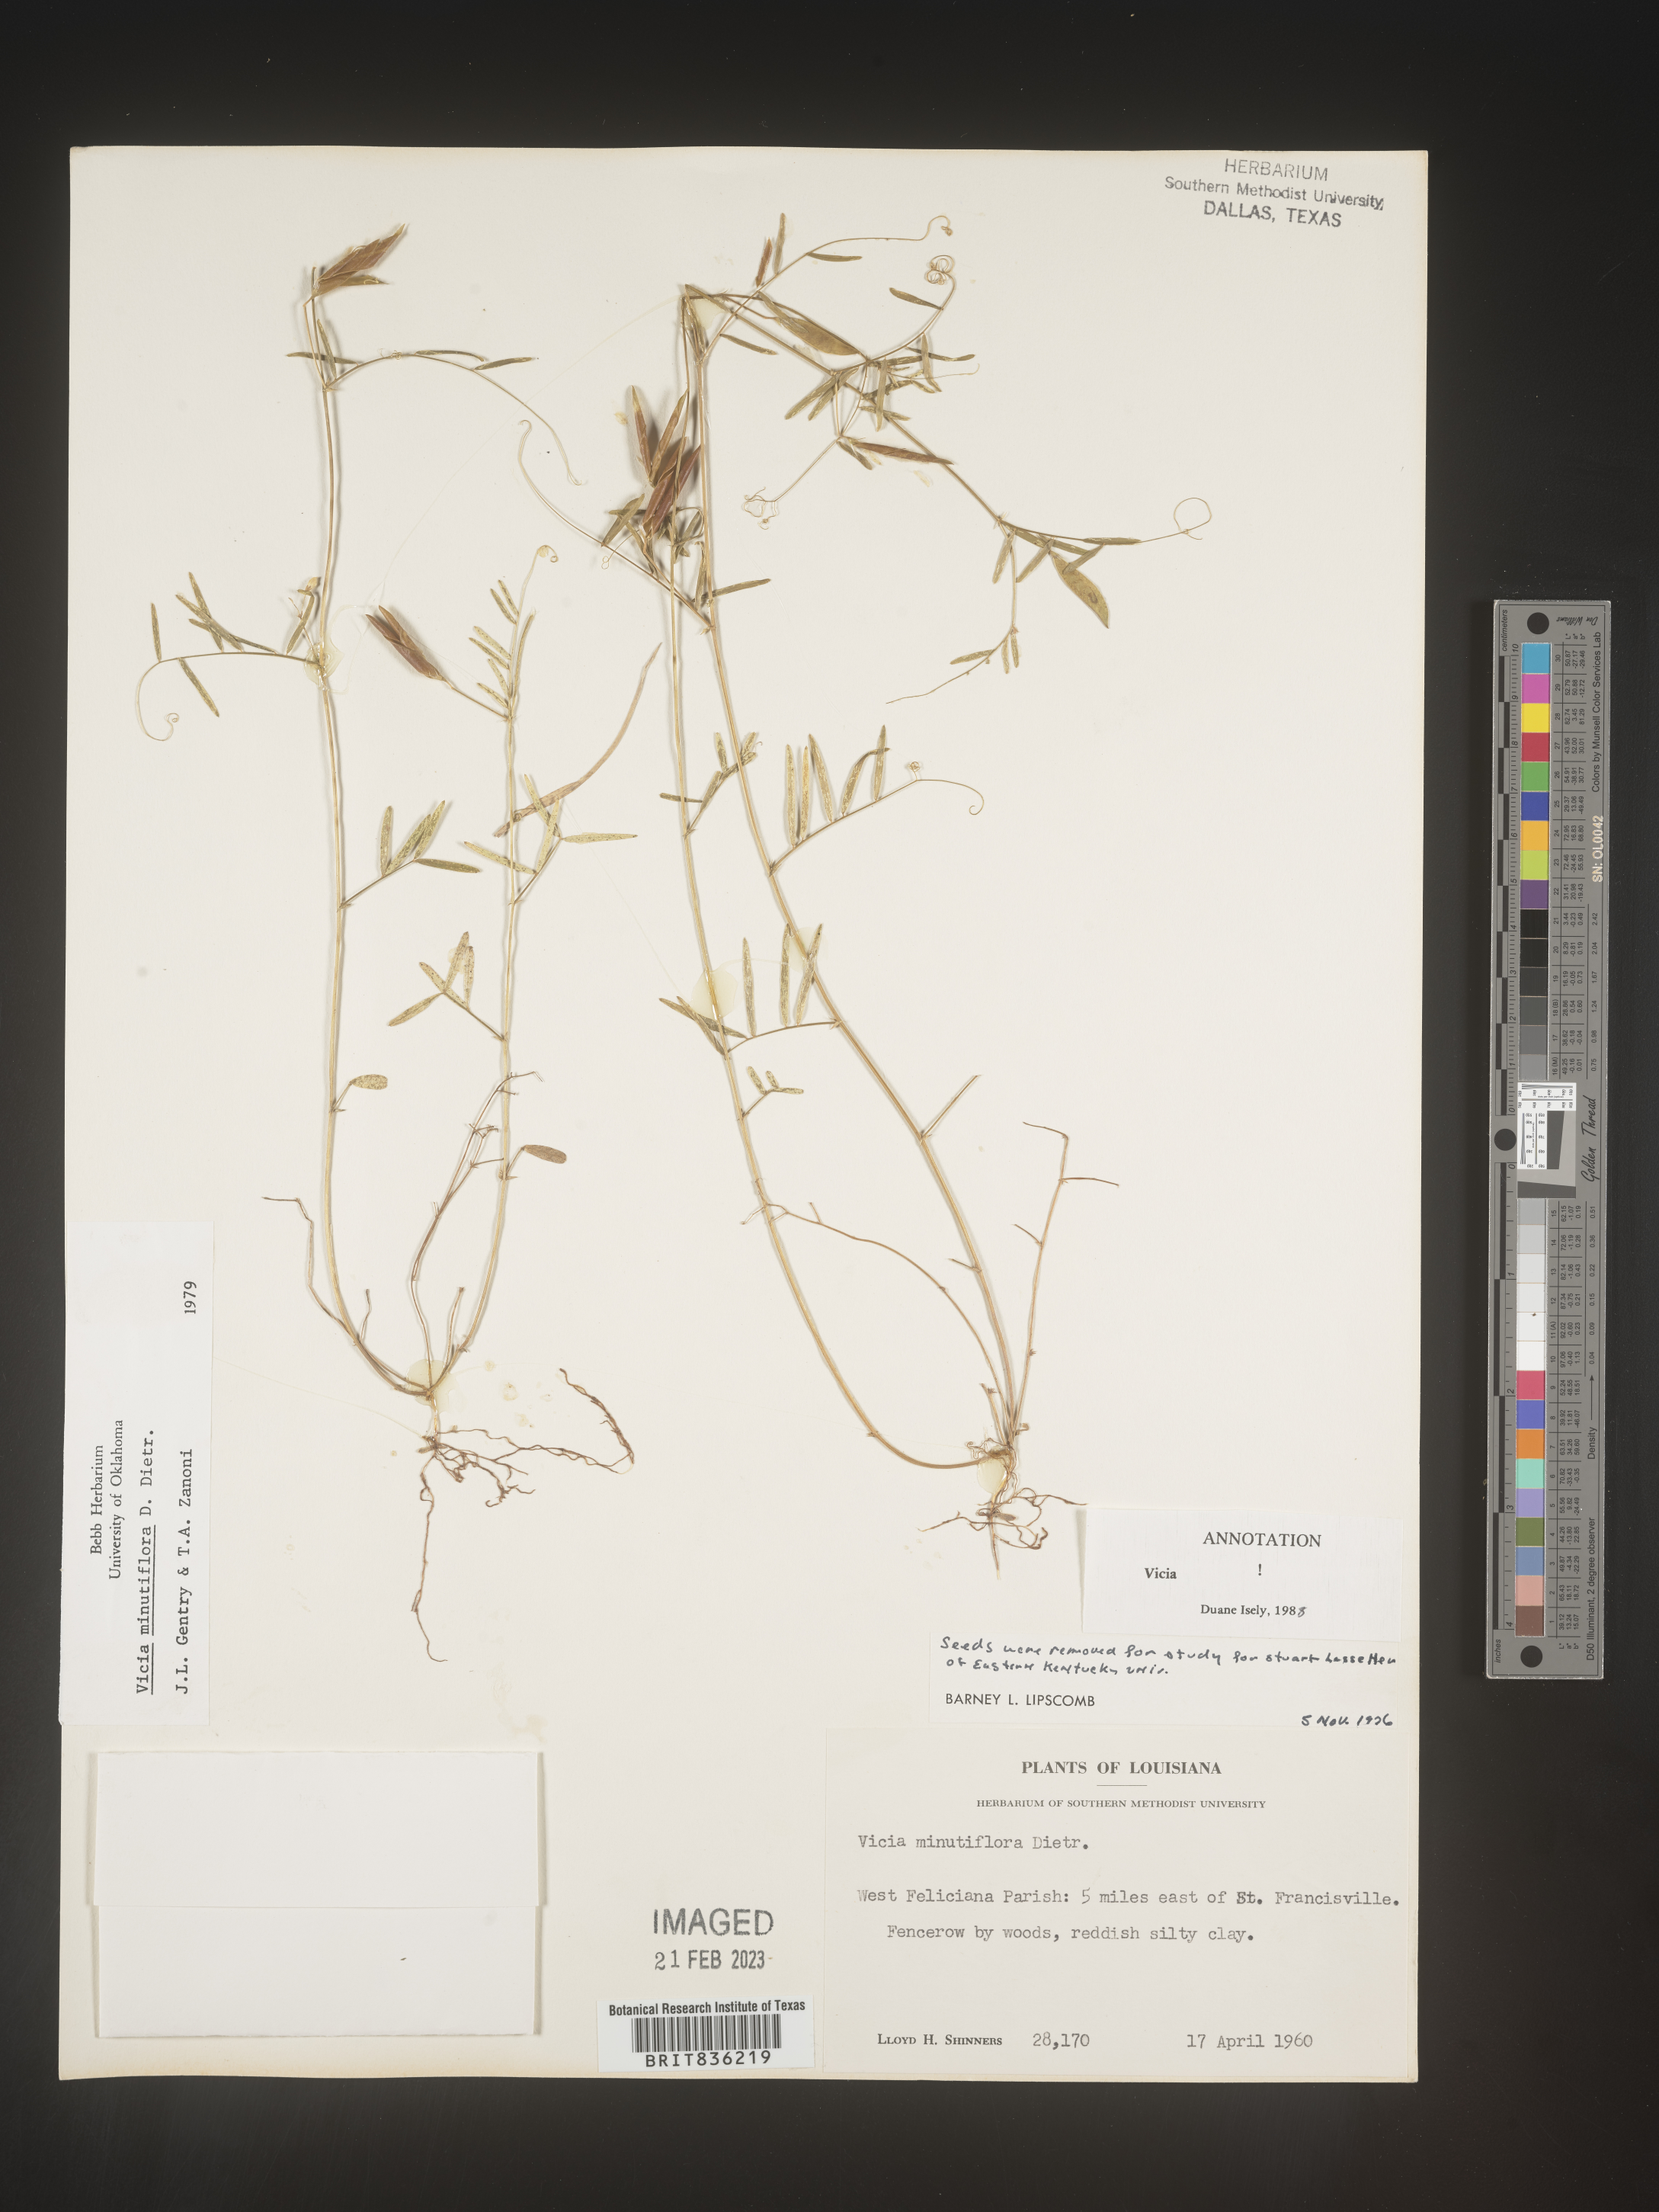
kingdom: Plantae
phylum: Tracheophyta
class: Magnoliopsida
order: Fabales
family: Fabaceae
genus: Vicia
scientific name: Vicia minutiflora
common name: Pygmy-flower vetch
